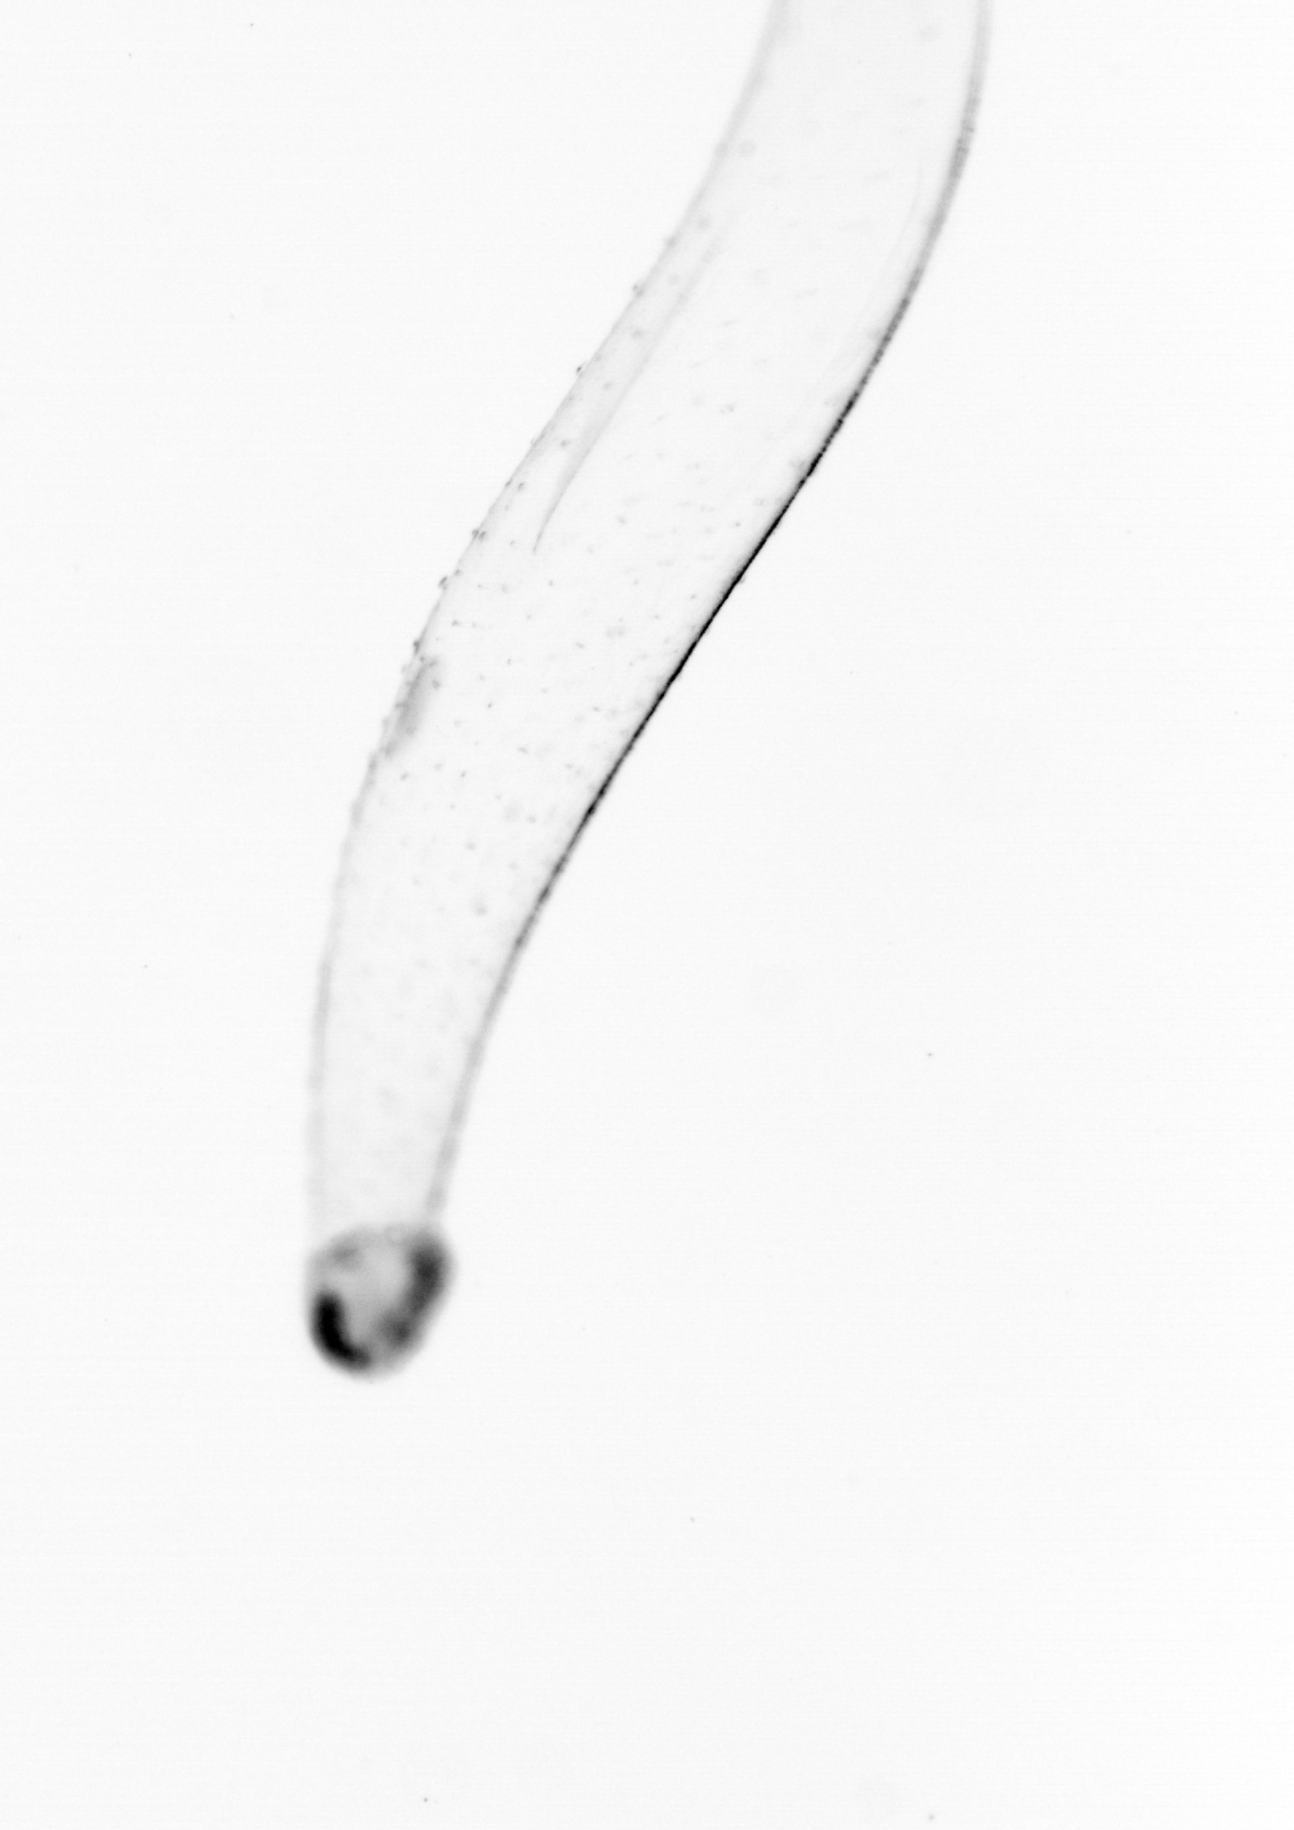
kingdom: Animalia
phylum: Chaetognatha
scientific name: Chaetognatha
